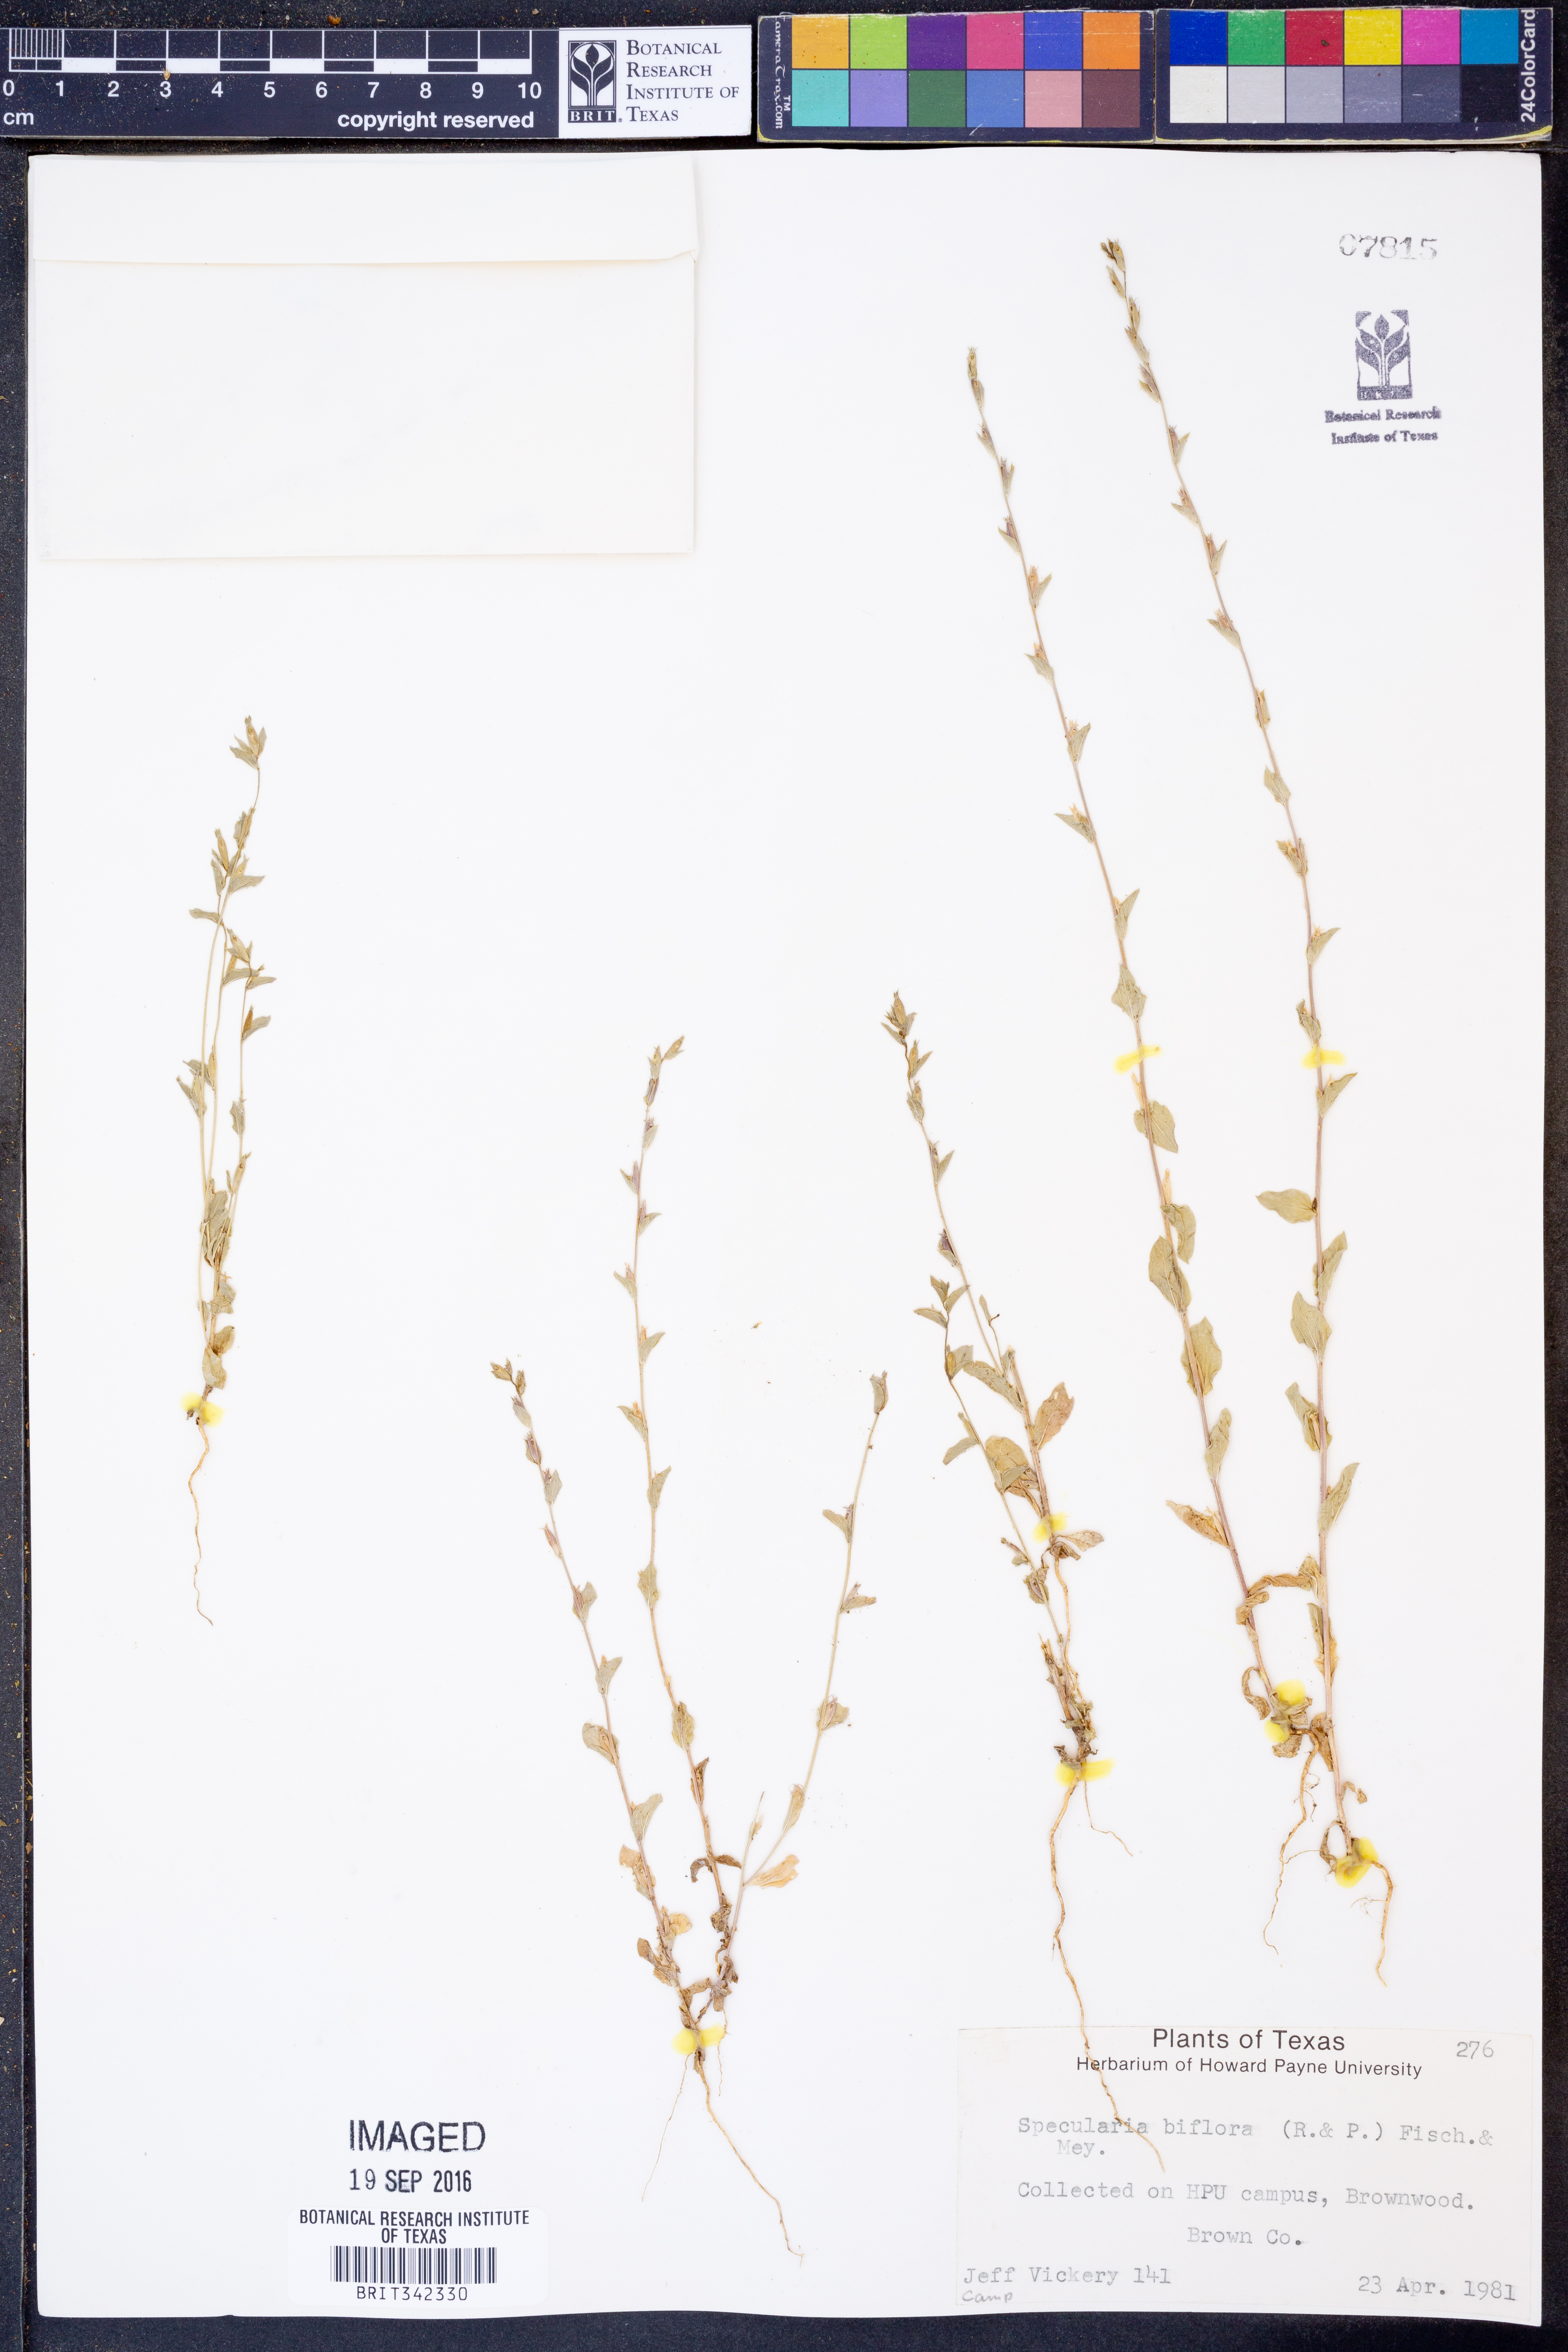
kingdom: Plantae
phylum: Tracheophyta
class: Magnoliopsida
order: Asterales
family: Campanulaceae
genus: Triodanis
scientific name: Triodanis perfoliata
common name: Clasping venus' looking-glass
